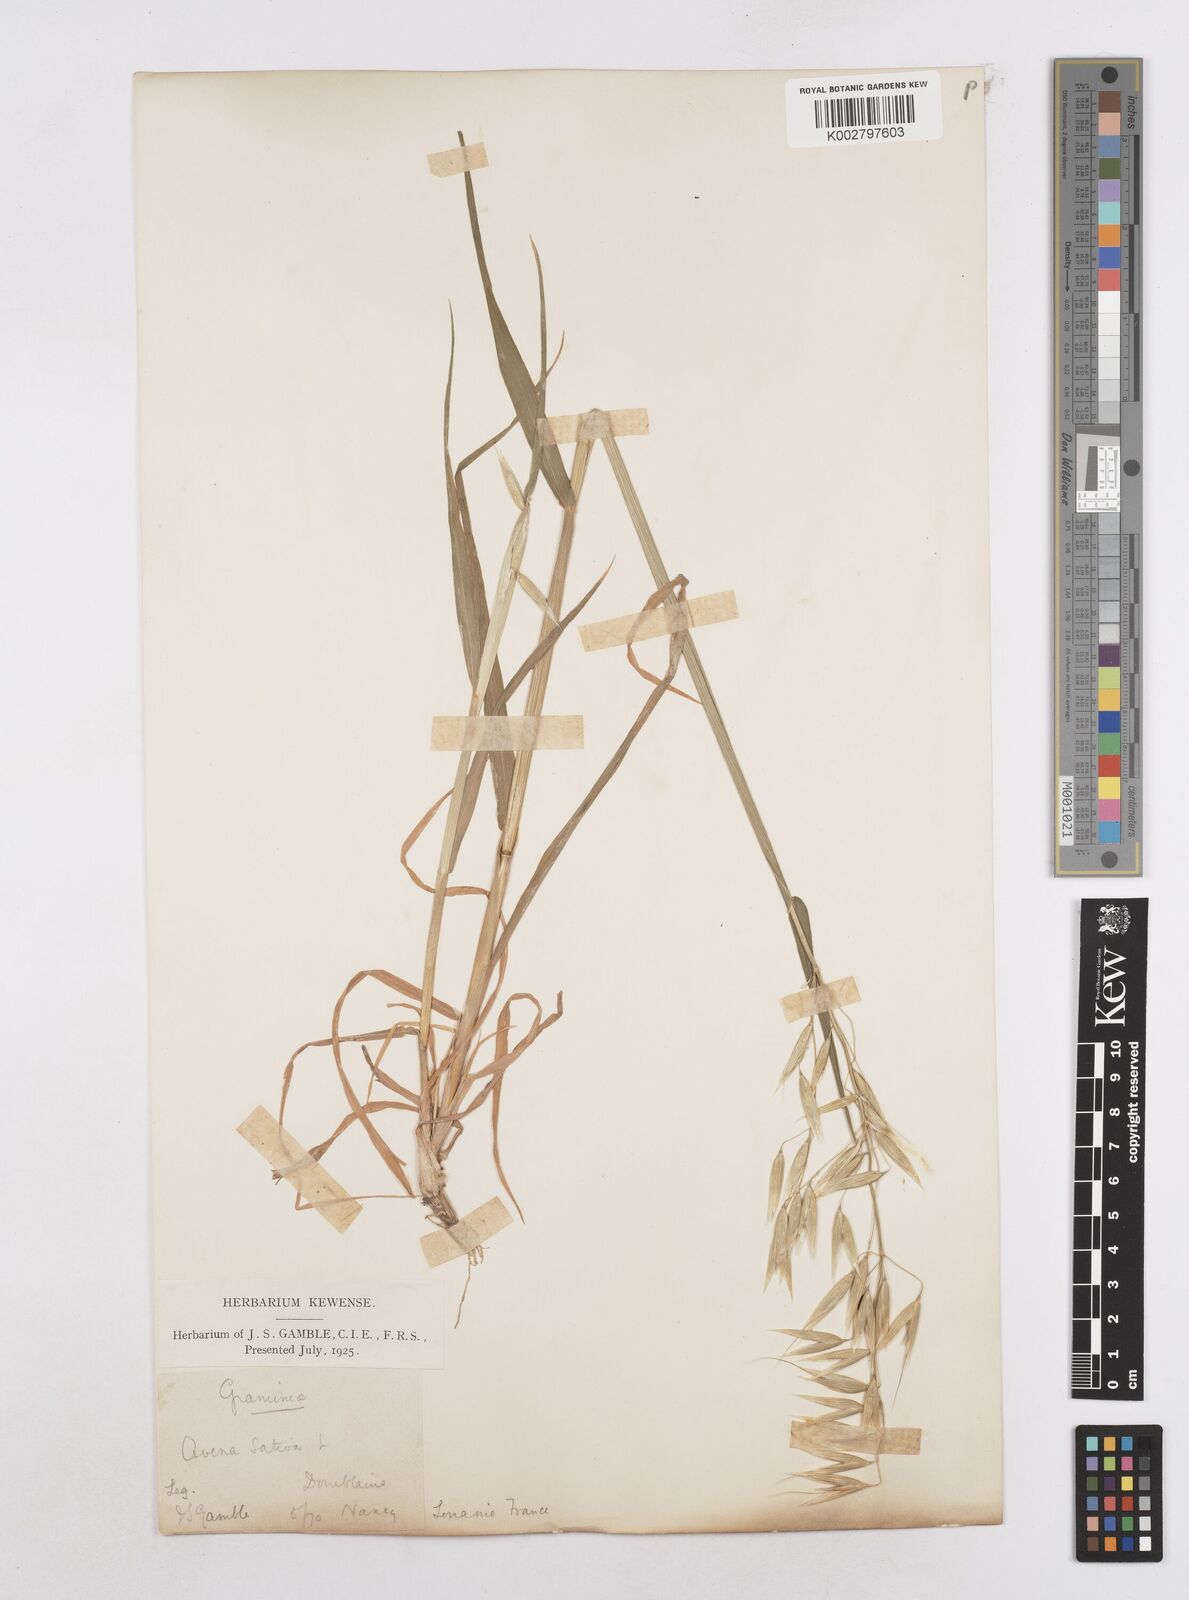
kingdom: Plantae
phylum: Tracheophyta
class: Liliopsida
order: Poales
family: Poaceae
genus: Avena
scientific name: Avena sativa
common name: Oat
